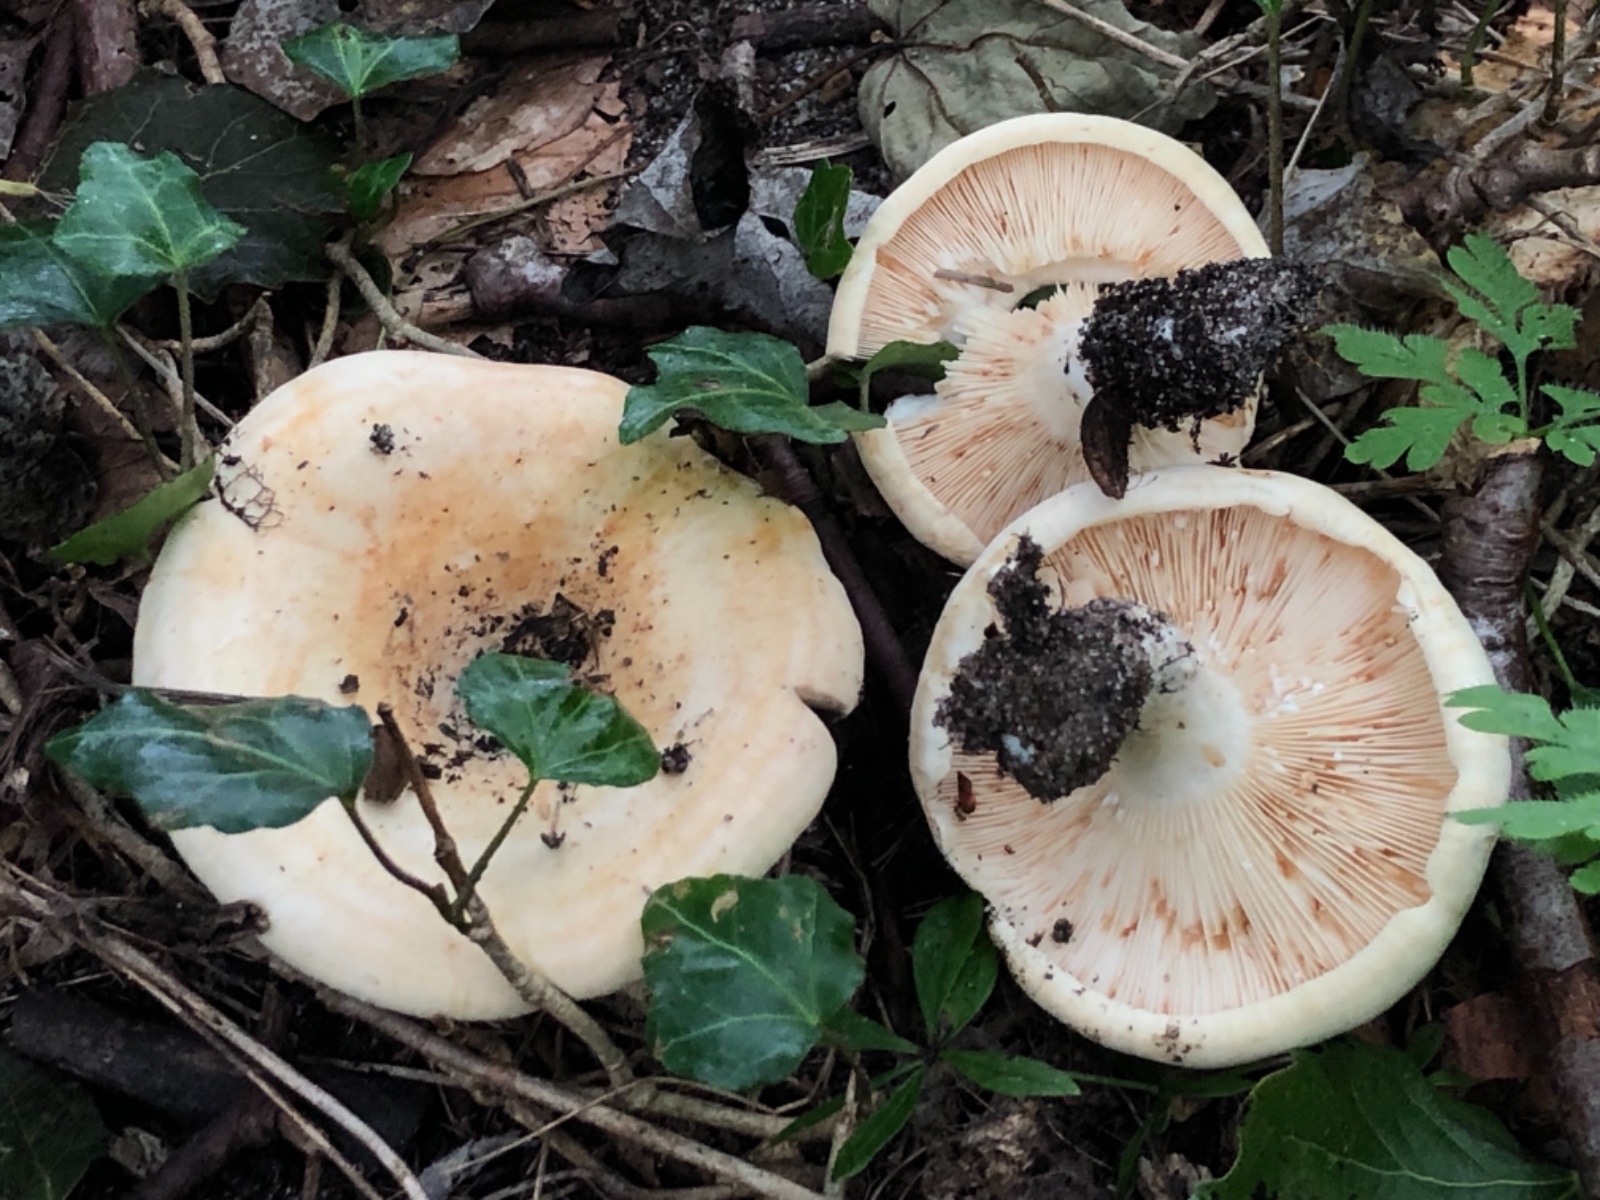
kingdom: Fungi
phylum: Basidiomycota
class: Agaricomycetes
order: Russulales
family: Russulaceae
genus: Lactarius
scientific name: Lactarius evosmus
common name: bæltet mælkehat
